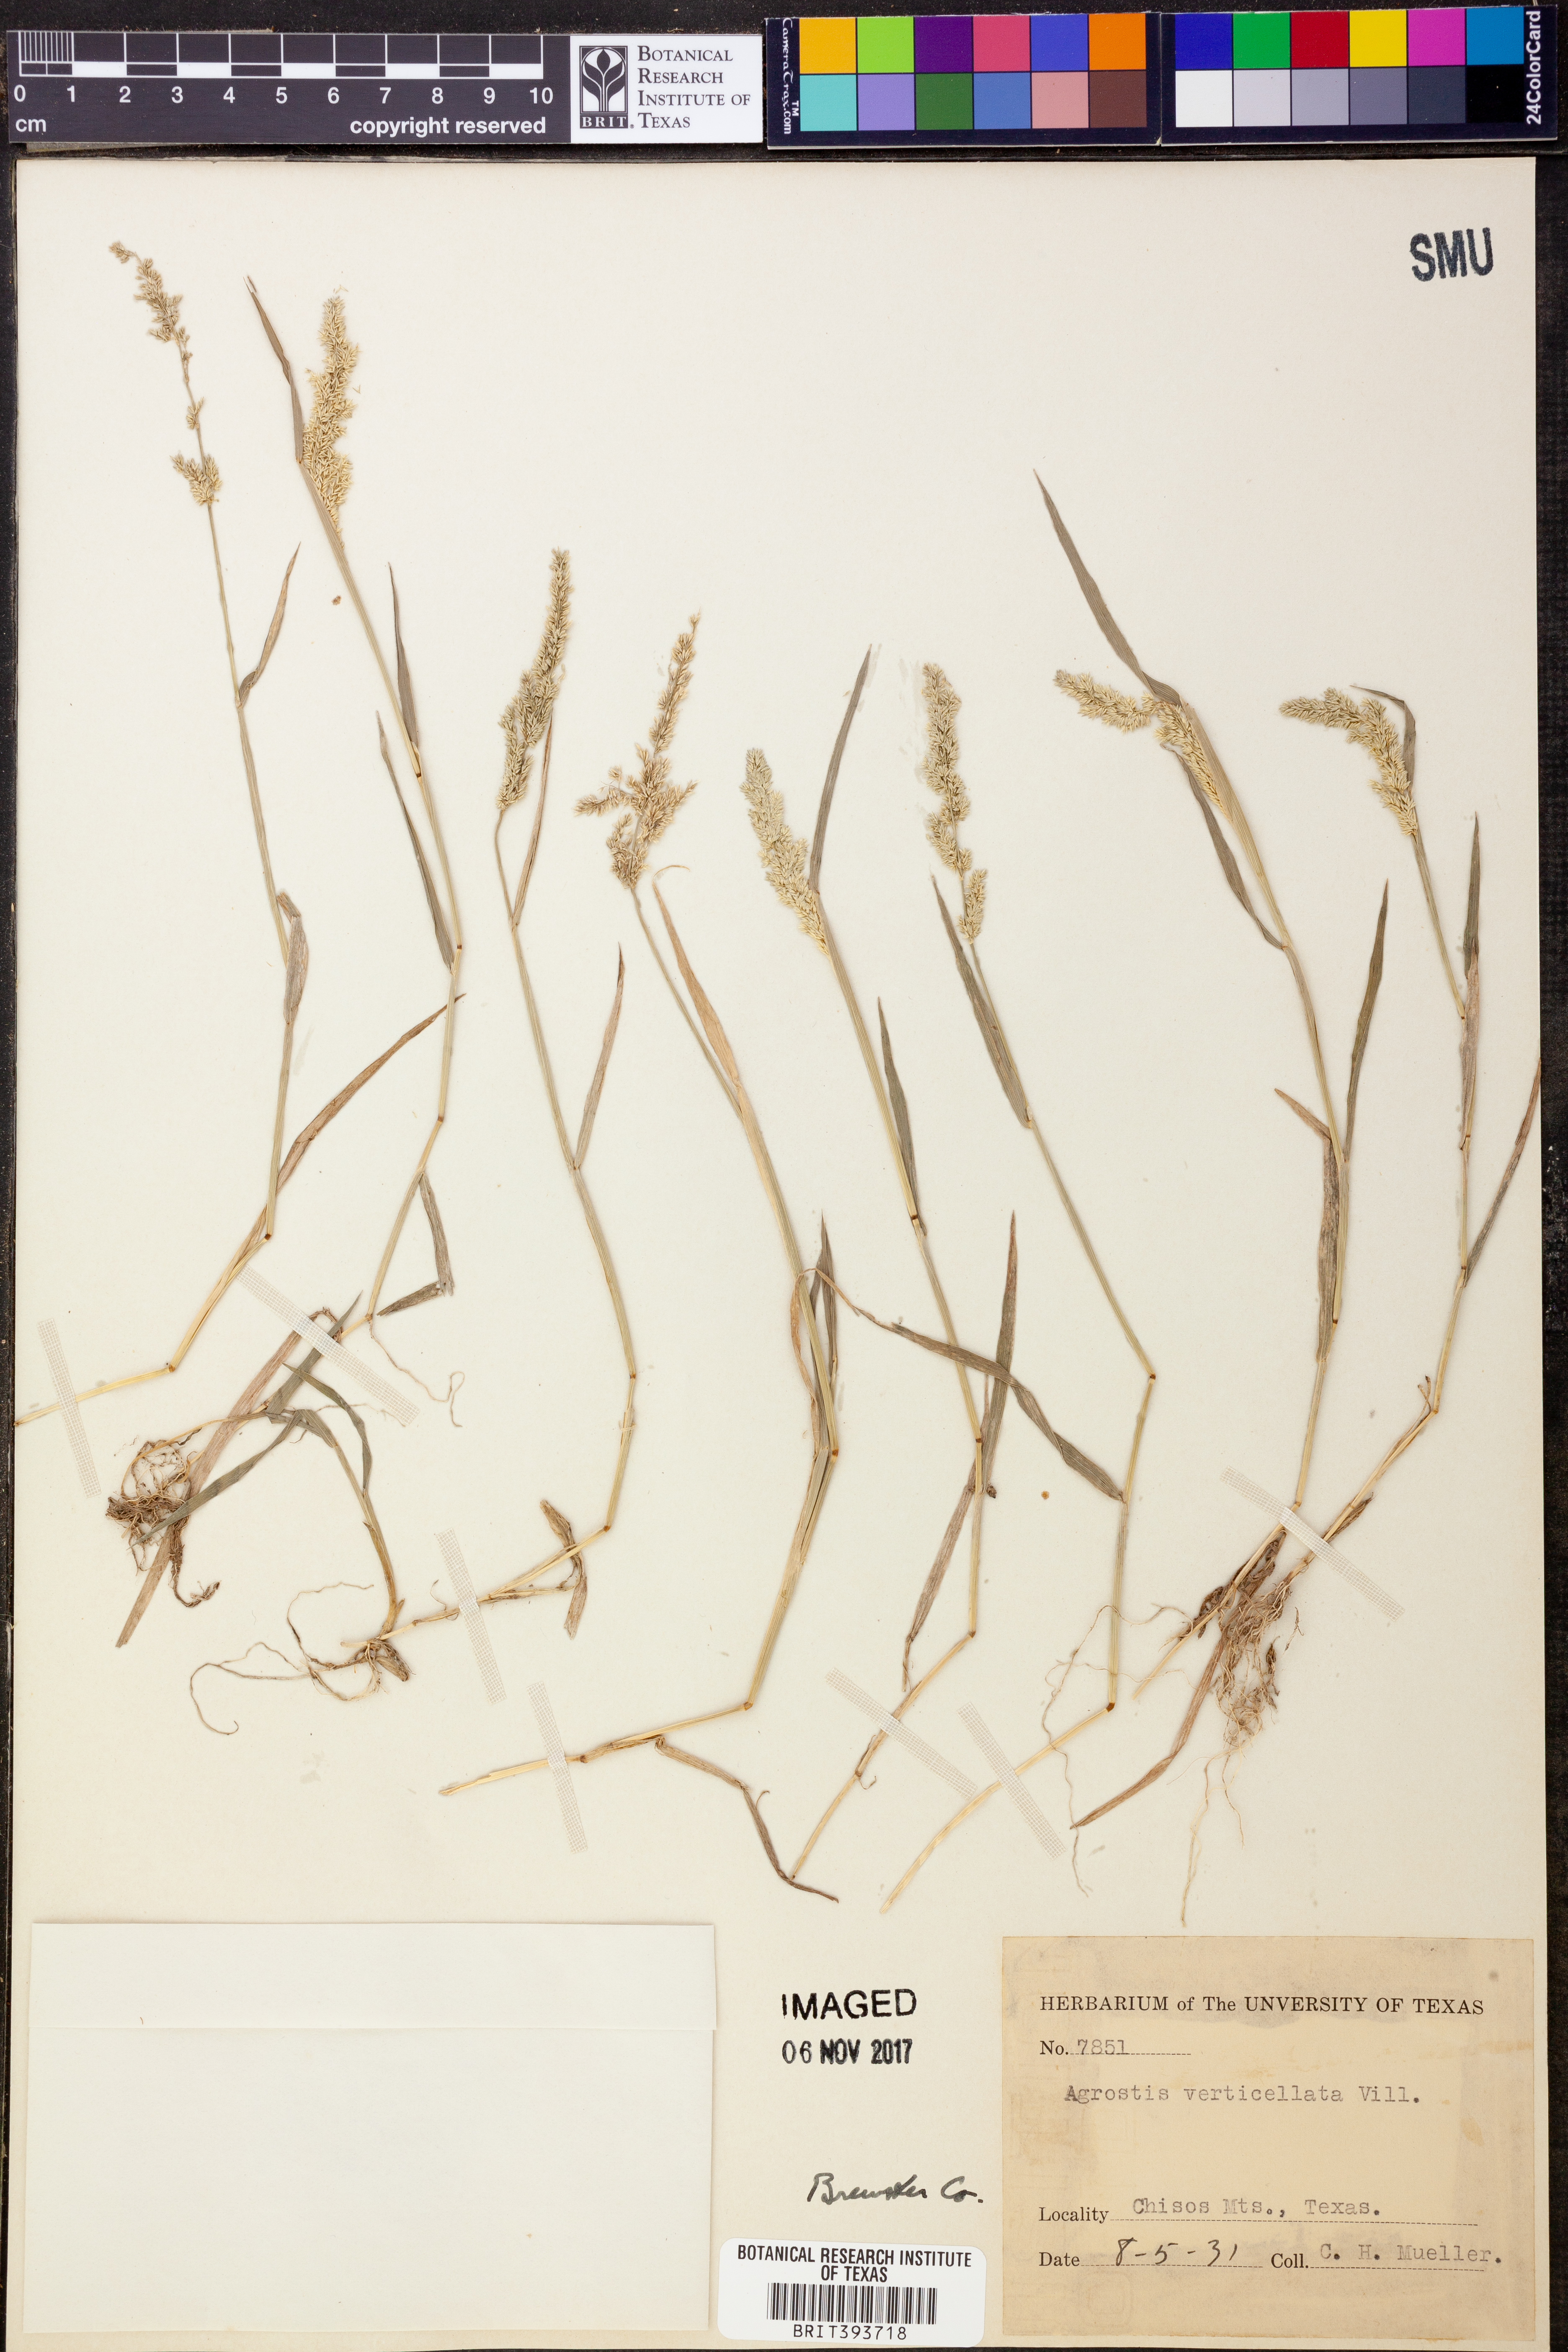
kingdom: Plantae
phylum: Tracheophyta
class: Liliopsida
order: Poales
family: Poaceae
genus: Polypogon
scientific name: Polypogon viridis
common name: Water bent
